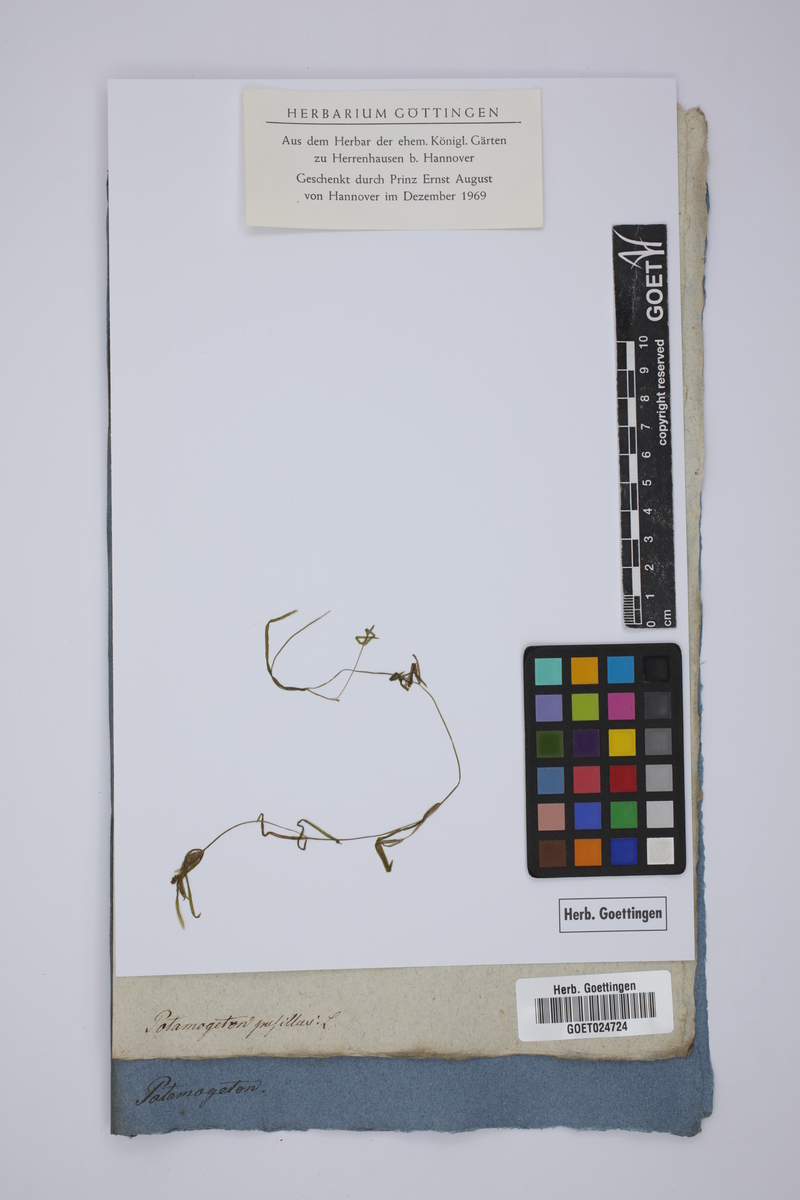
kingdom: Plantae
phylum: Tracheophyta
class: Liliopsida
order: Alismatales
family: Potamogetonaceae
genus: Potamogeton
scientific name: Potamogeton pusillus
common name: Lesser pondweed
